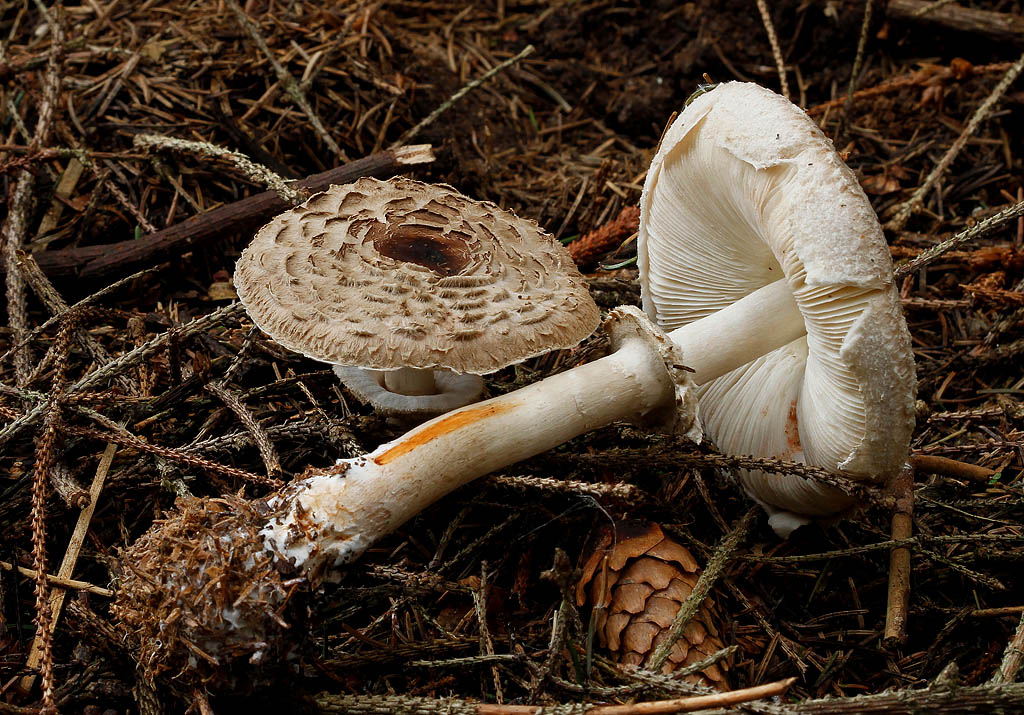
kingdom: Fungi
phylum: Basidiomycota
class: Agaricomycetes
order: Agaricales
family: Agaricaceae
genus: Chlorophyllum
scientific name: Chlorophyllum olivieri
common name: almindelig rabarberhat
